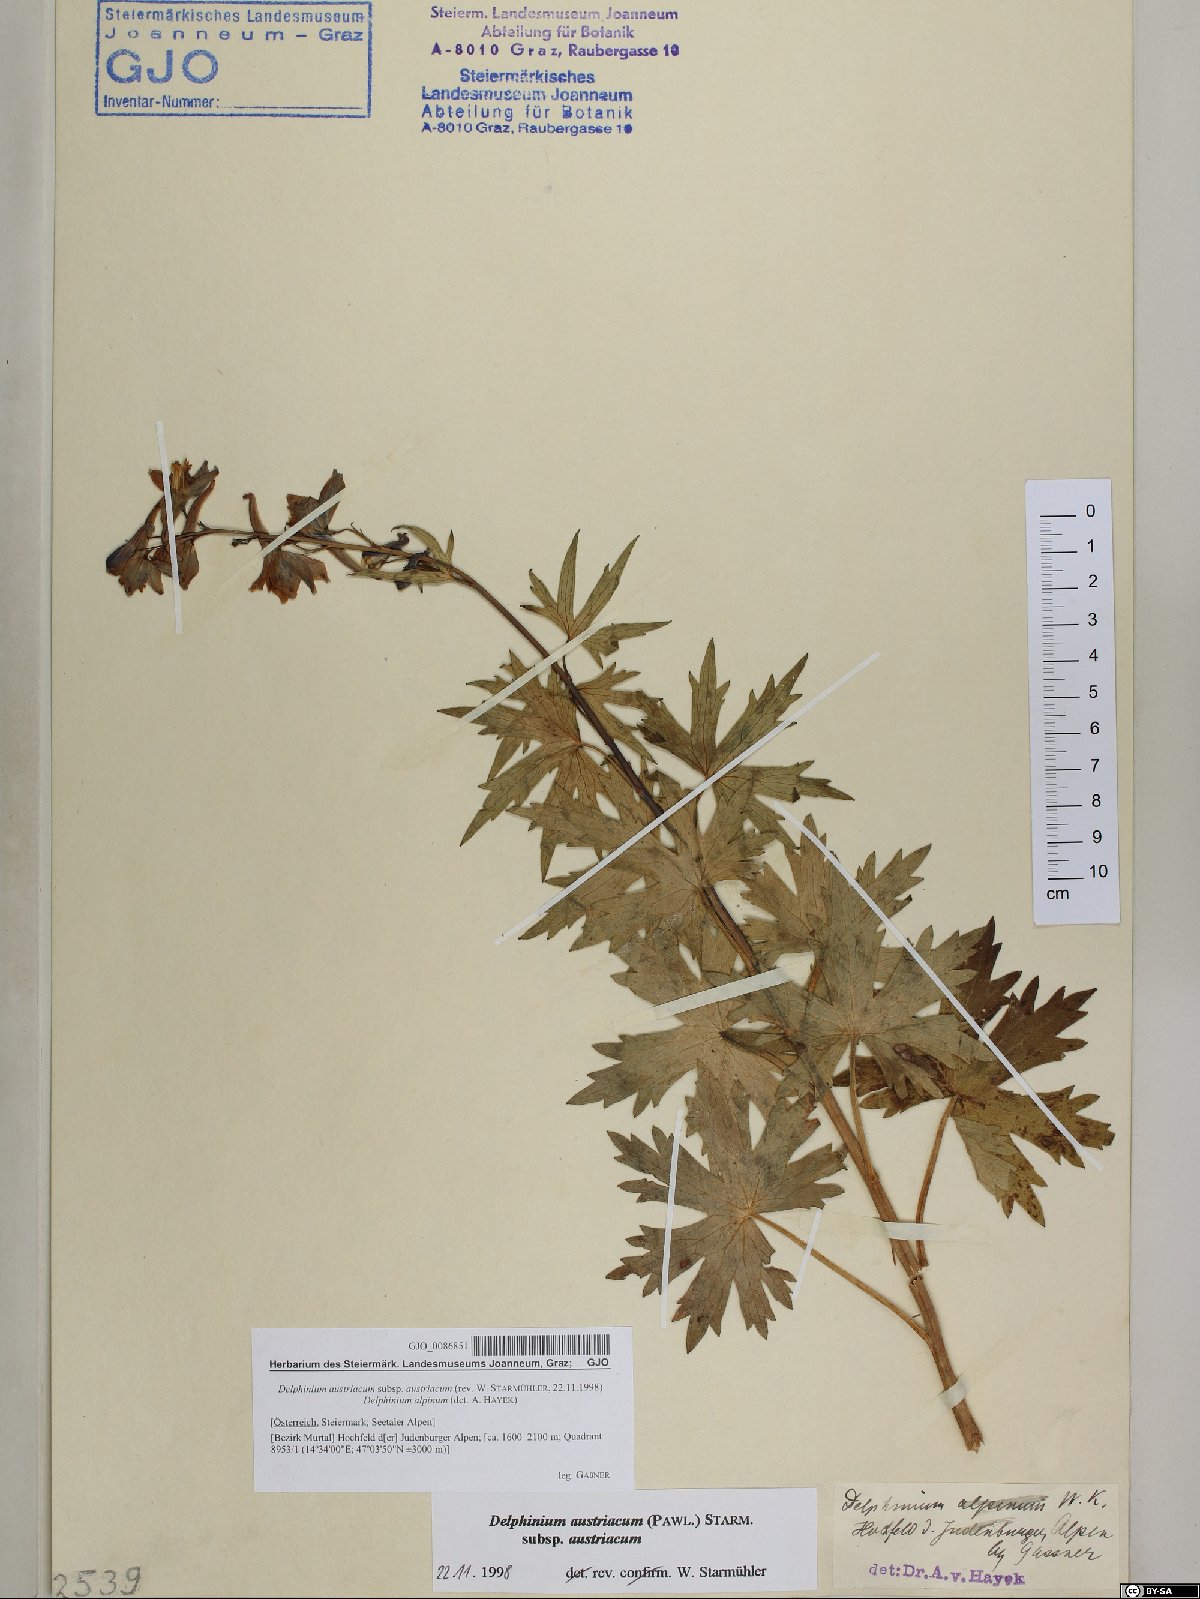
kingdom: Plantae
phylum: Tracheophyta
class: Magnoliopsida
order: Ranunculales
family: Ranunculaceae
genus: Delphinium
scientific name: Delphinium austriacum
